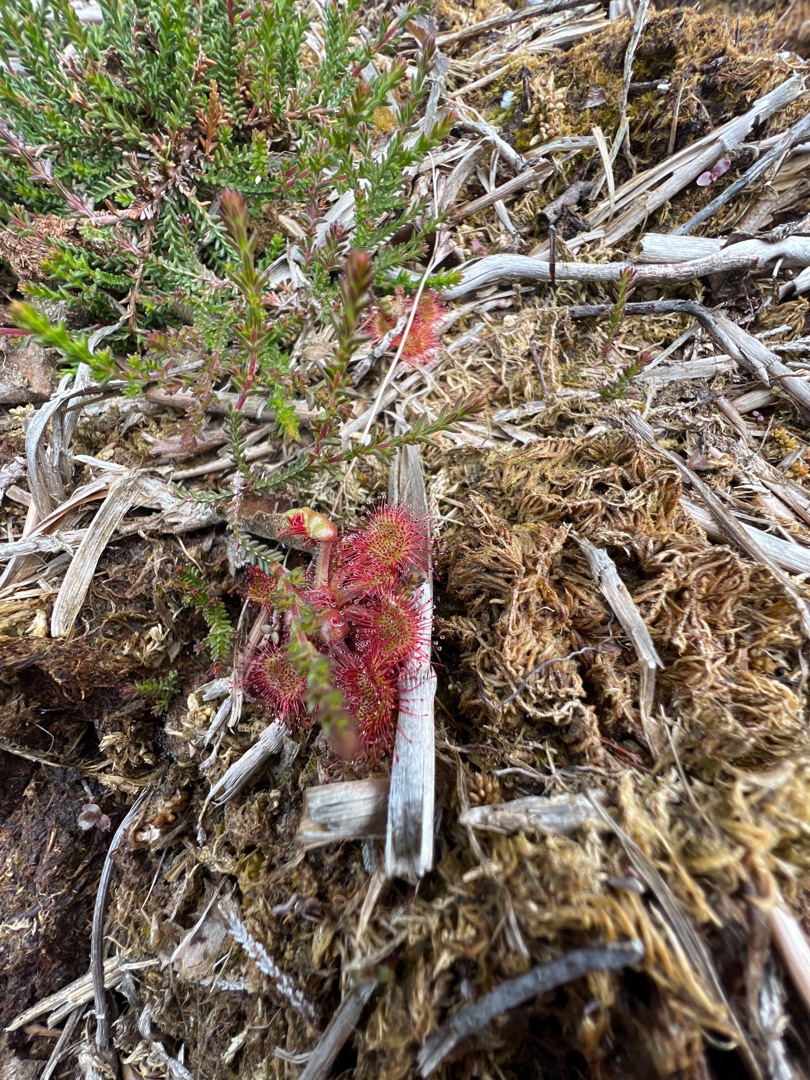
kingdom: Plantae
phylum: Tracheophyta
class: Magnoliopsida
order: Caryophyllales
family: Droseraceae
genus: Drosera
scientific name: Drosera rotundifolia
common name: Rundbladet soldug
